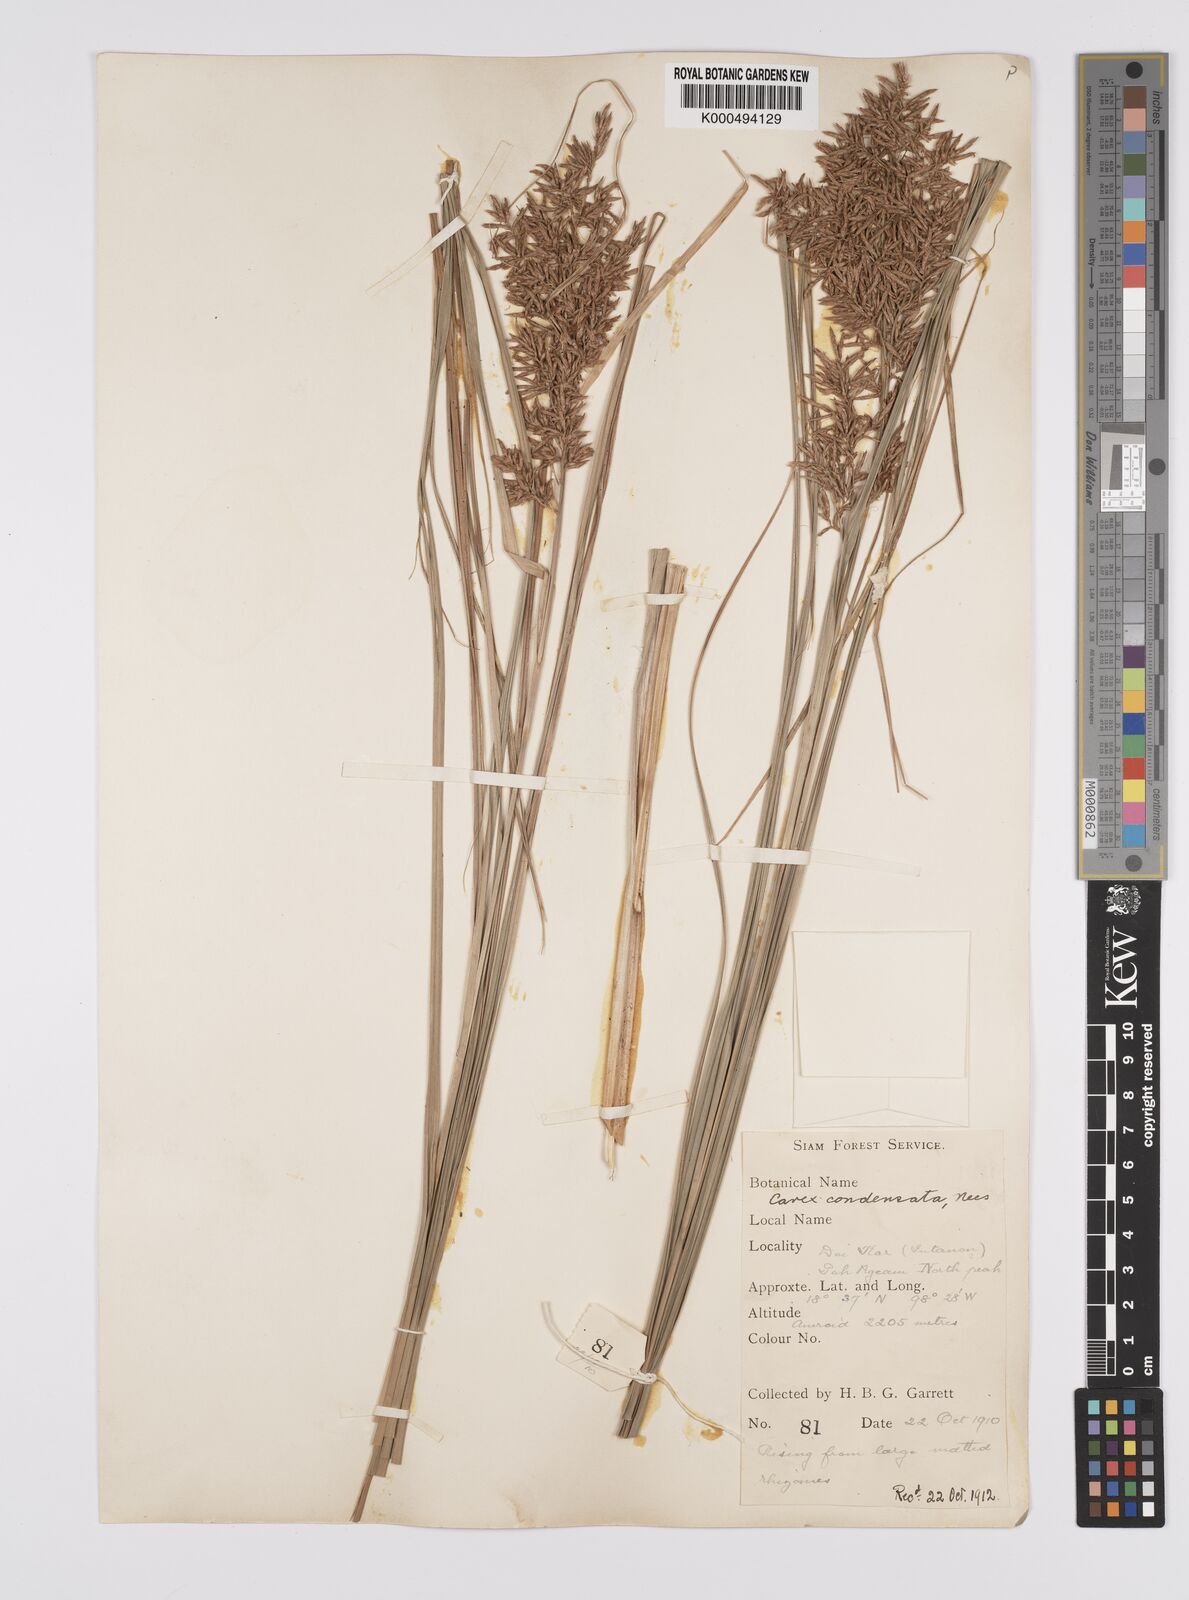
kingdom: Plantae
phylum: Tracheophyta
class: Liliopsida
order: Poales
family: Cyperaceae
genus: Carex
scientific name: Carex condensata
